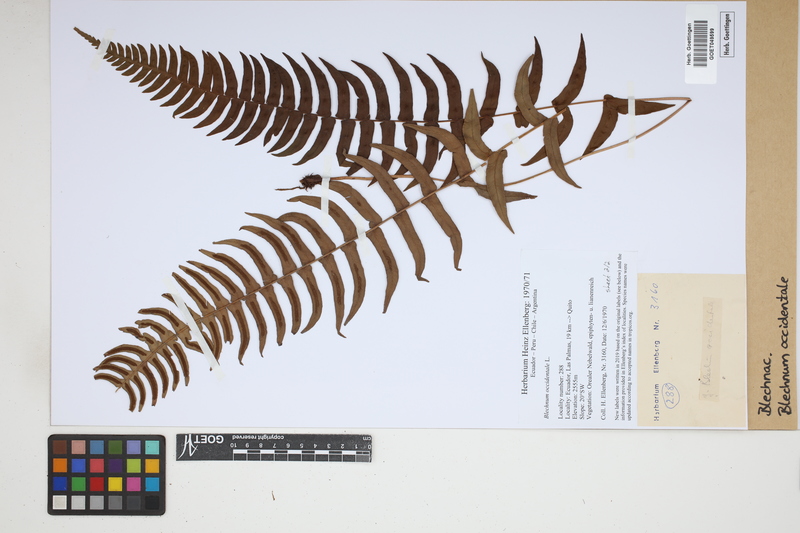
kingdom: Plantae
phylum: Tracheophyta
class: Polypodiopsida
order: Polypodiales
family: Blechnaceae
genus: Blechnum
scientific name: Blechnum occidentale
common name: Hammock fern
